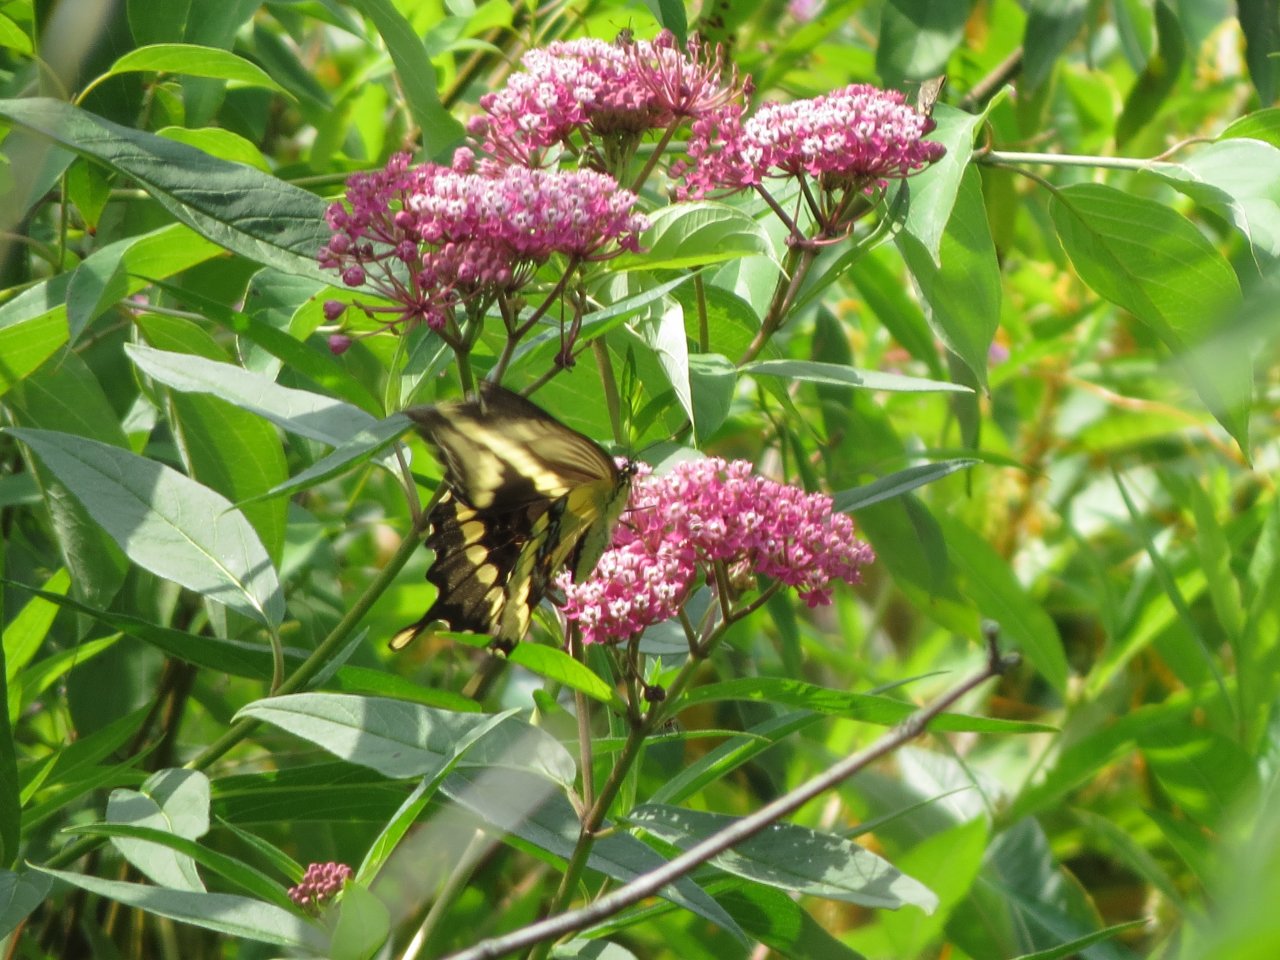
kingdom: Animalia
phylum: Arthropoda
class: Insecta
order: Lepidoptera
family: Papilionidae
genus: Papilio
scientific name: Papilio cresphontes
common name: Eastern Giant Swallowtail
